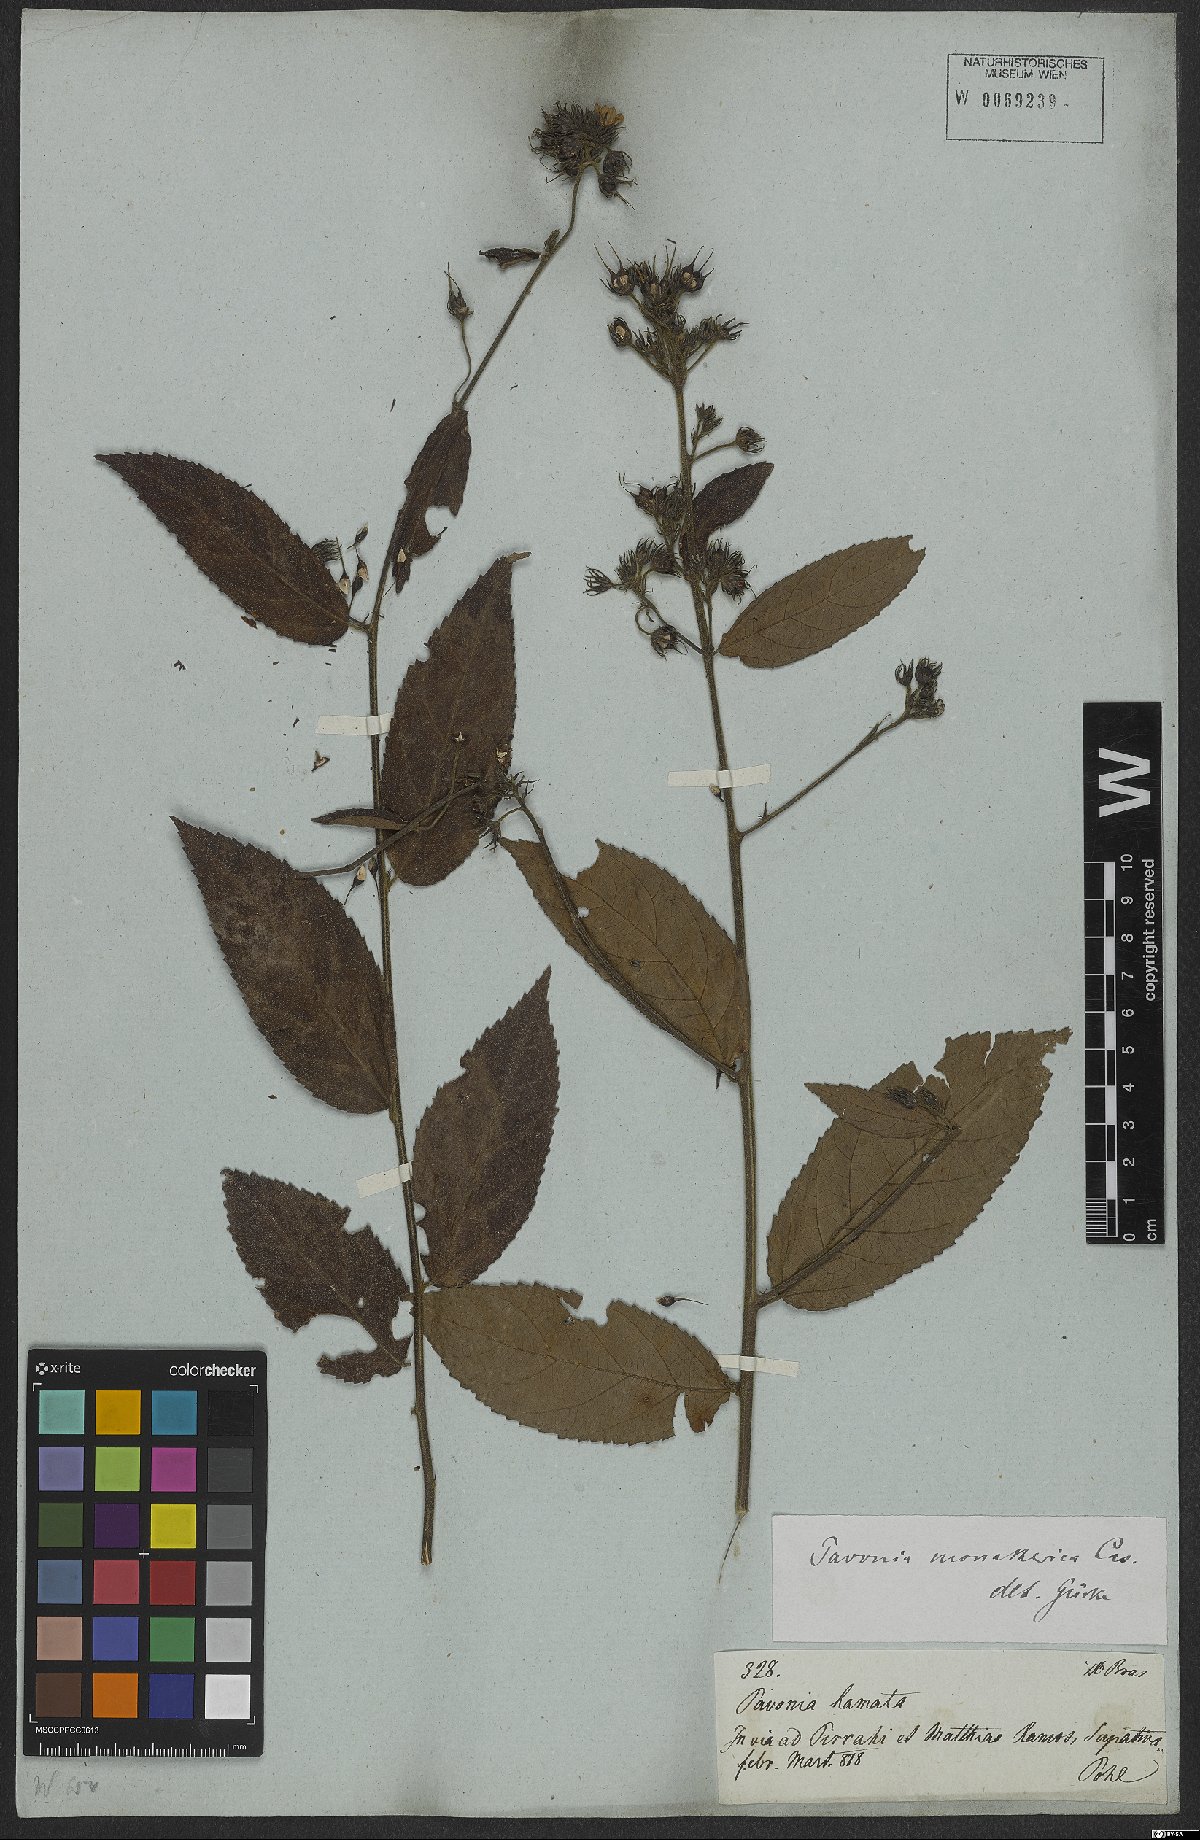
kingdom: Plantae
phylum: Tracheophyta
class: Magnoliopsida
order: Malvales
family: Malvaceae
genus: Pavonia
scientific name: Pavonia fruticosa
